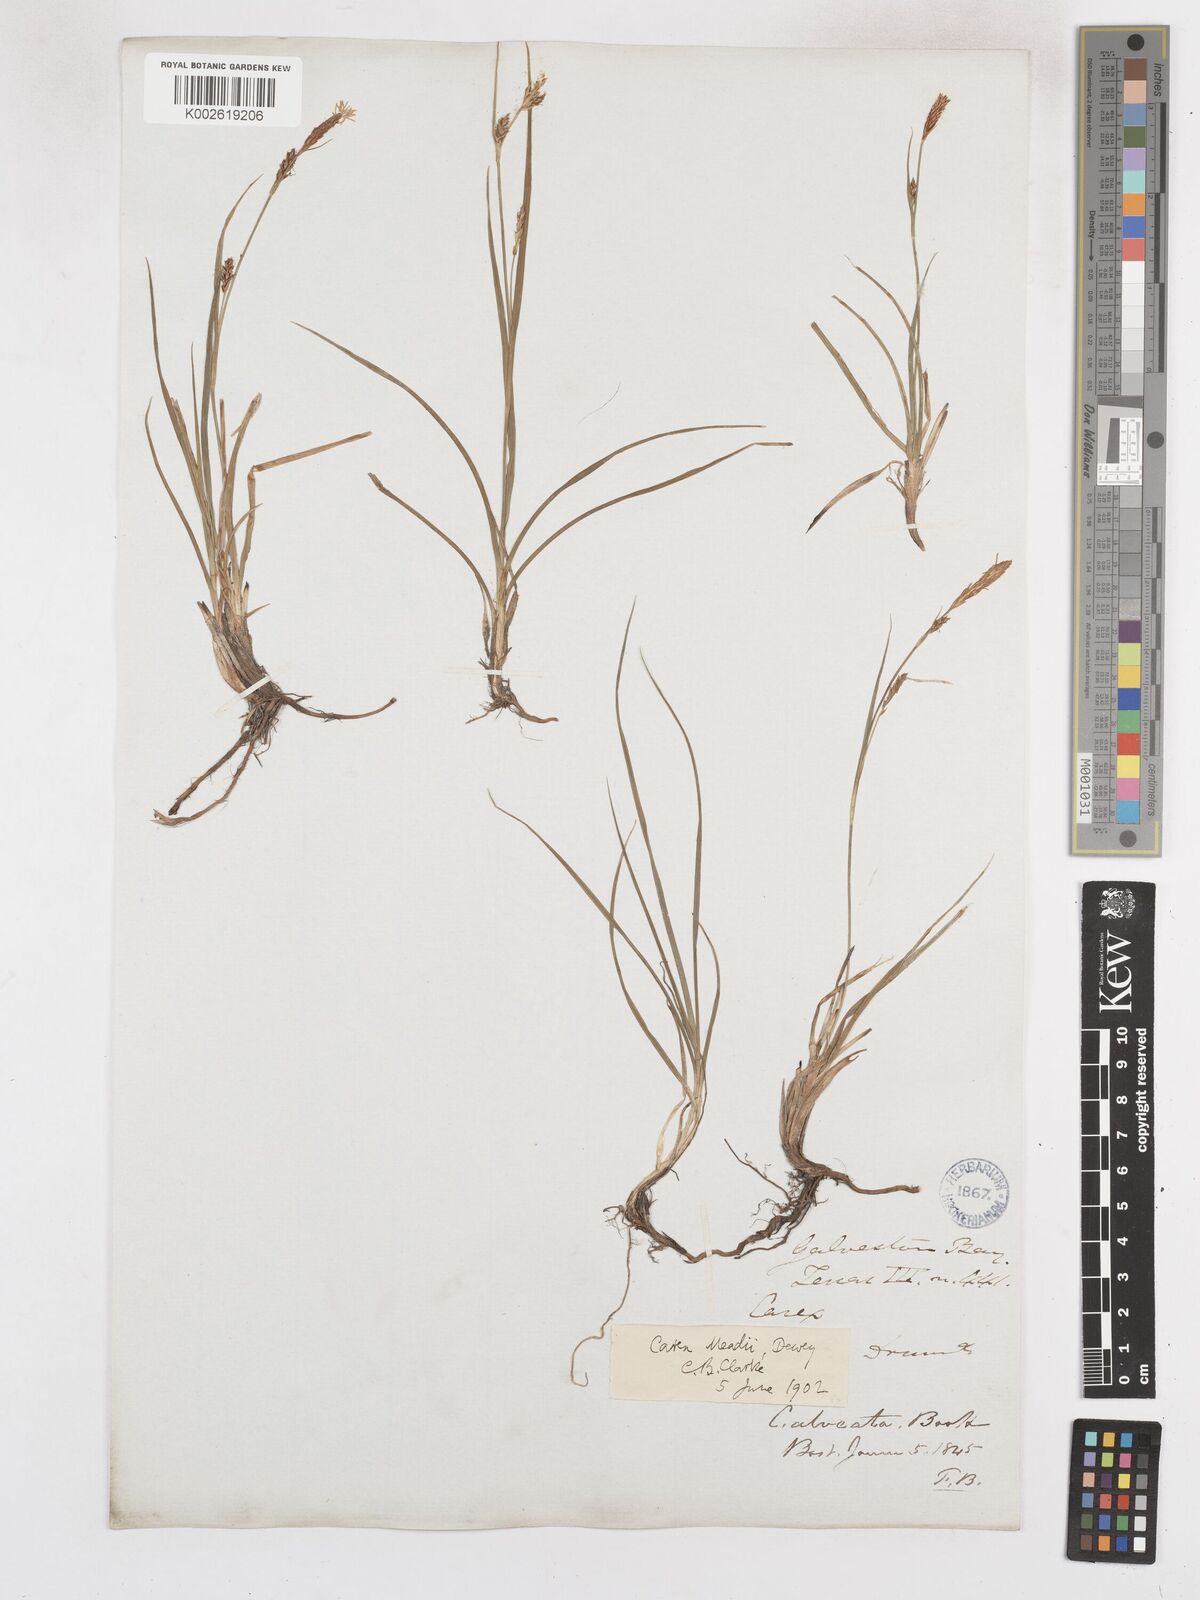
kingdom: Plantae
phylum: Tracheophyta
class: Liliopsida
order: Poales
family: Cyperaceae
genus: Carex
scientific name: Carex microdonta
